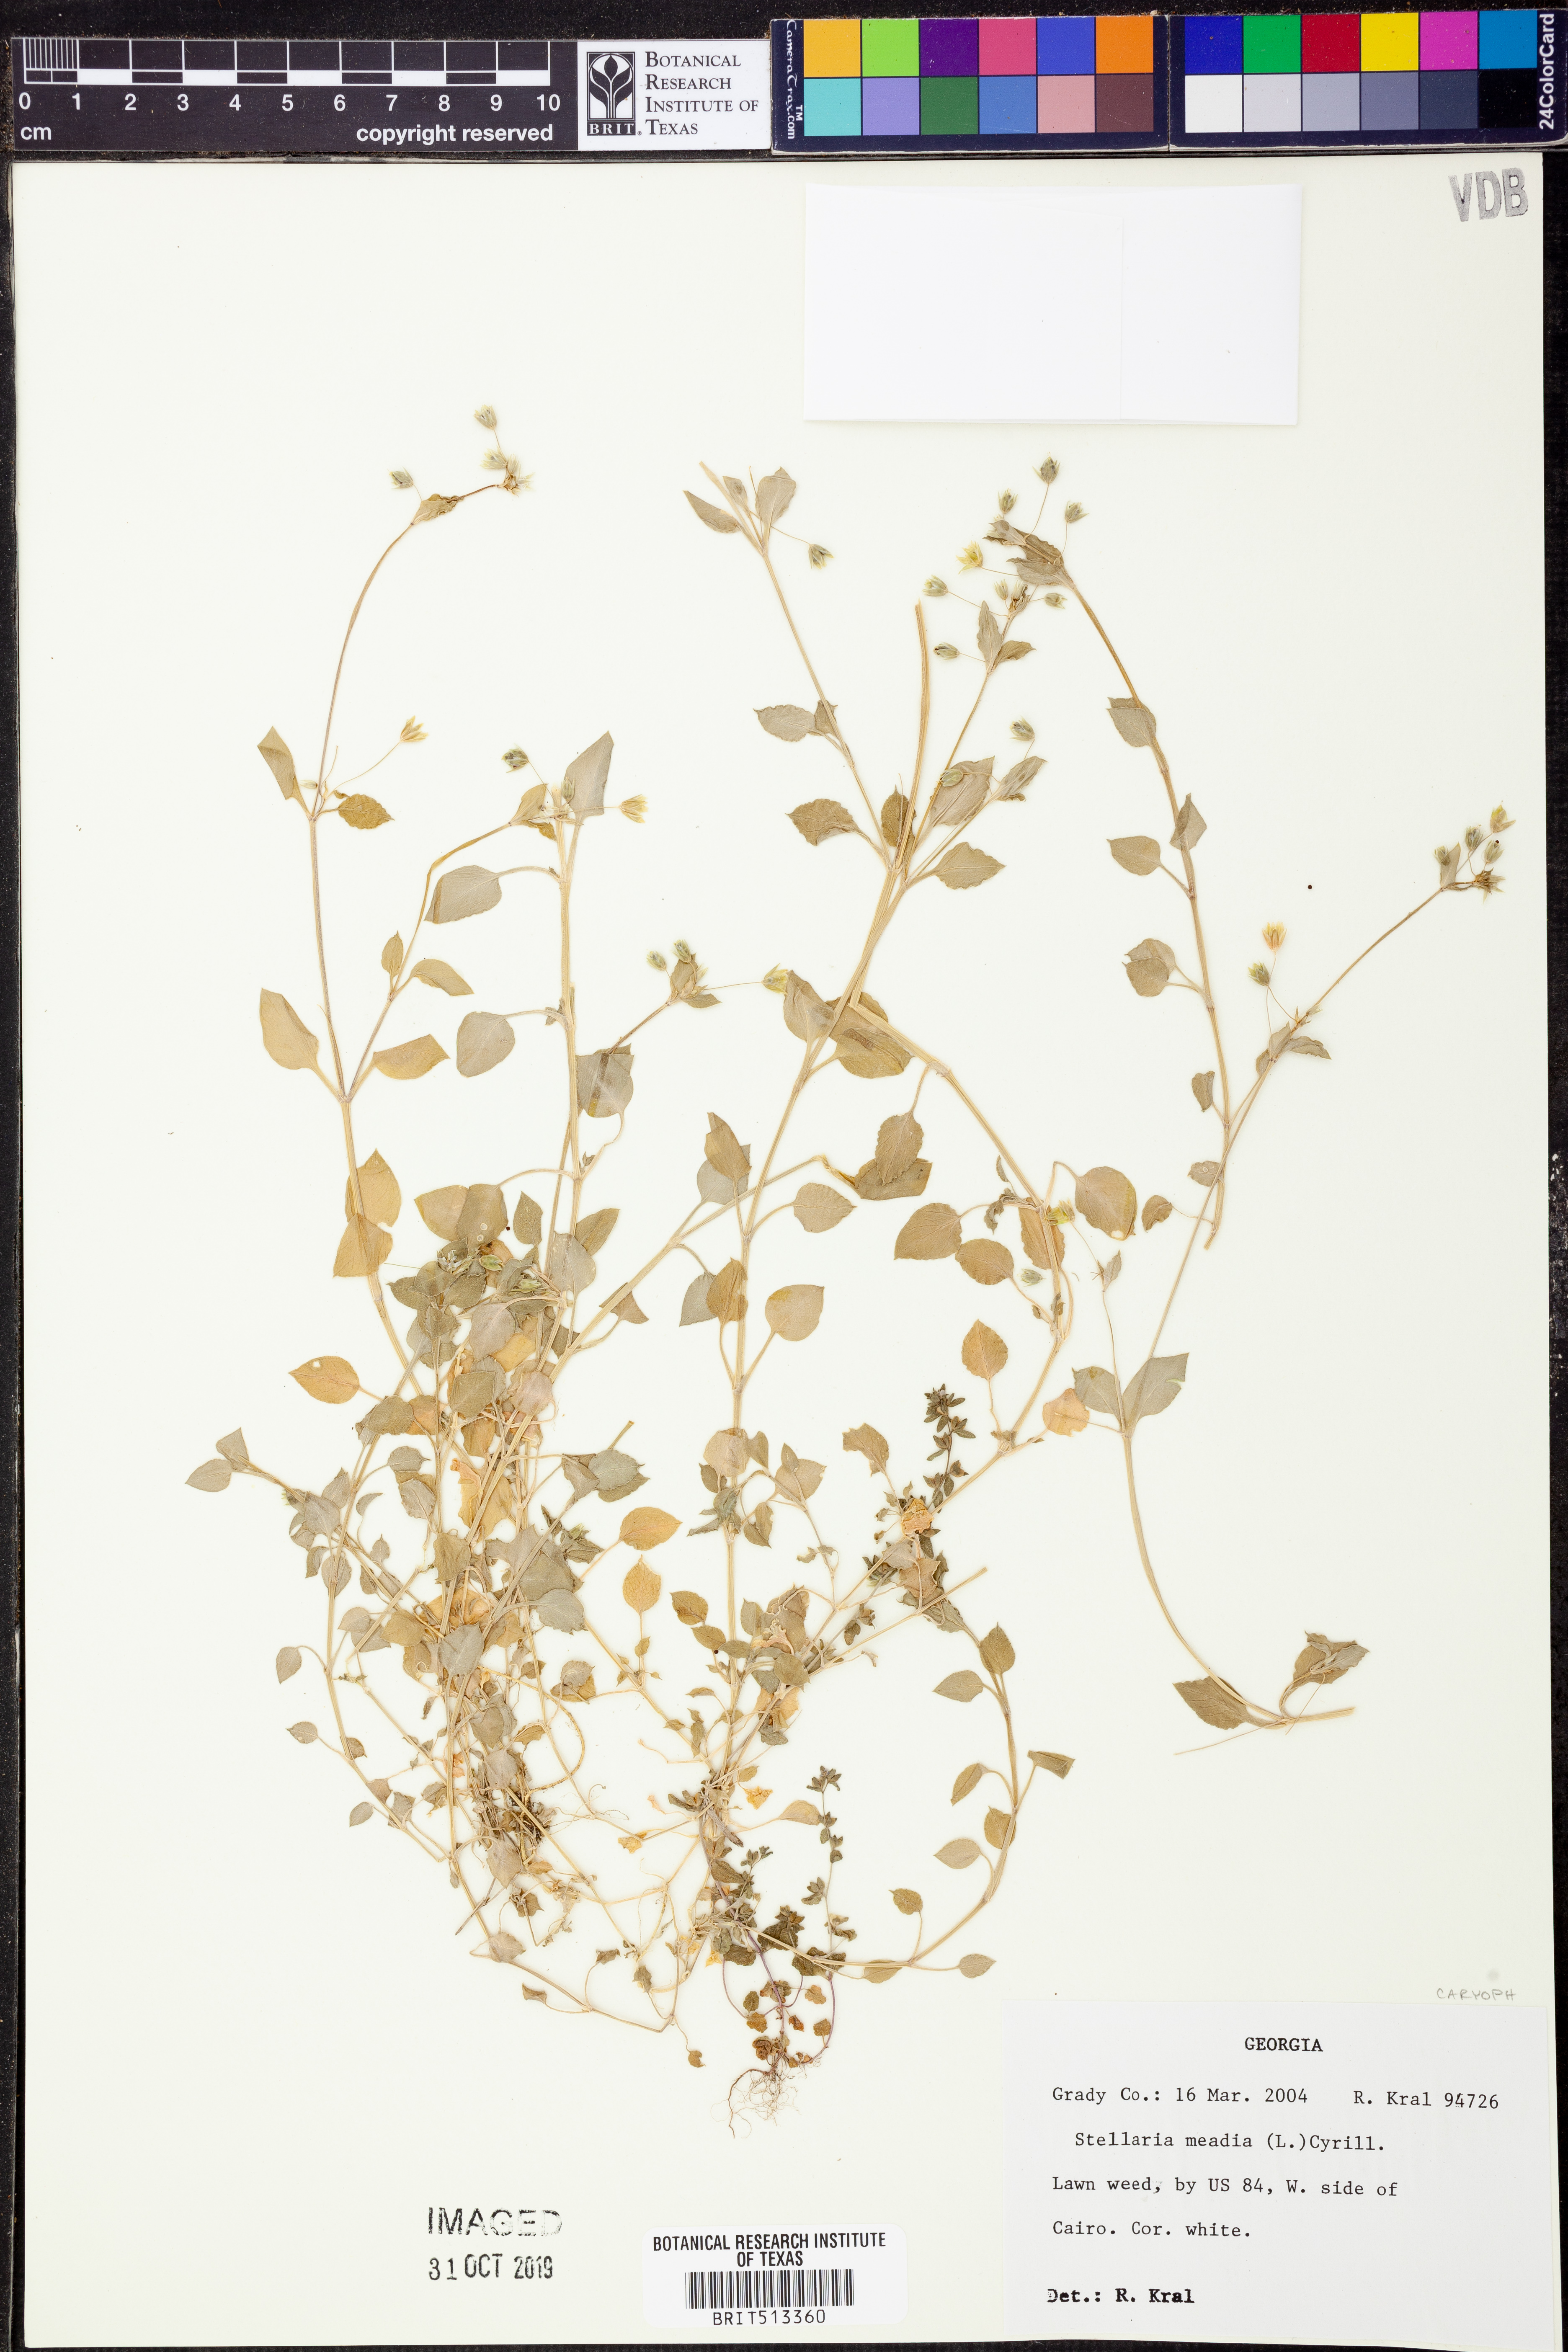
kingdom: Plantae
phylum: Tracheophyta
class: Magnoliopsida
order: Caryophyllales
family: Caryophyllaceae
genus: Stellaria
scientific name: Stellaria media
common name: Common chickweed
